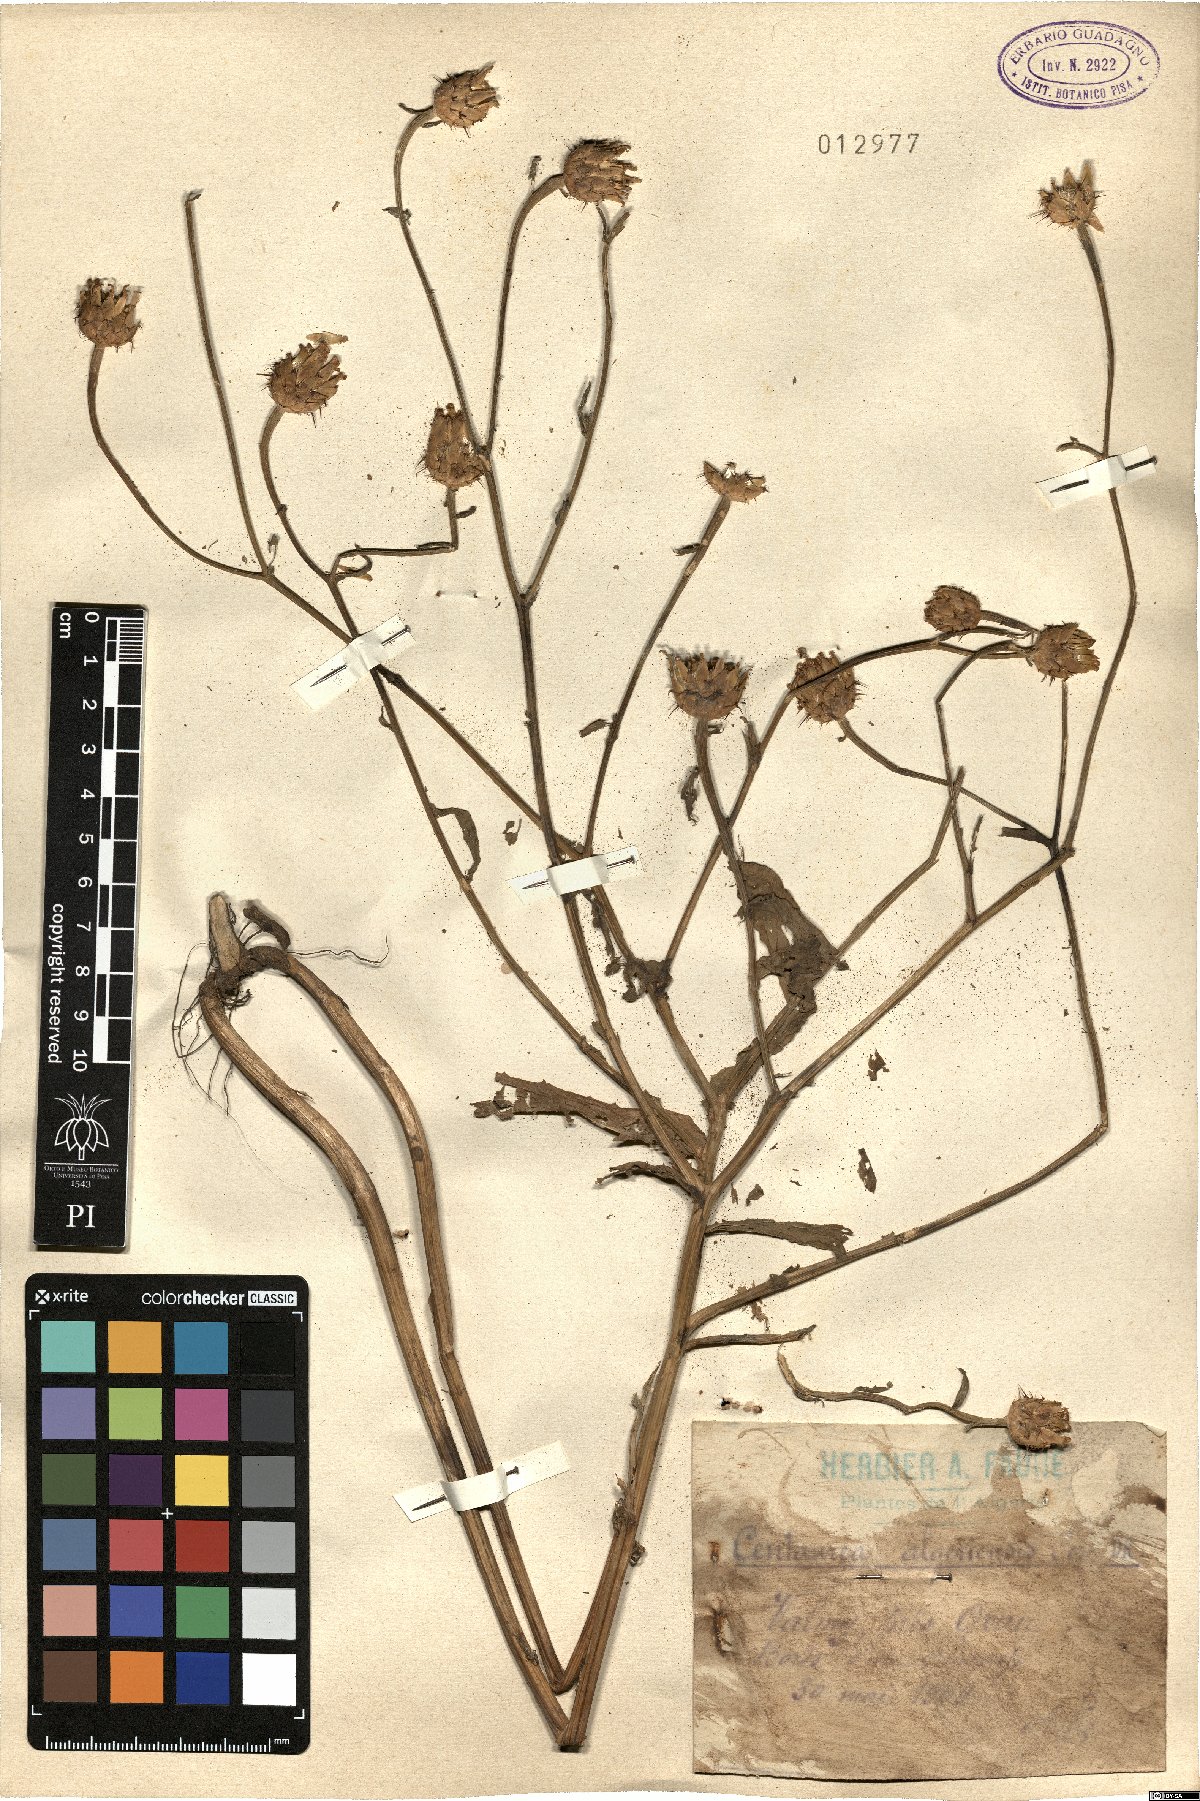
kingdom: Plantae
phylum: Tracheophyta
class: Magnoliopsida
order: Asterales
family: Asteraceae
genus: Centaurea
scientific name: Centaurea diluta
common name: Lesser star-thistle
